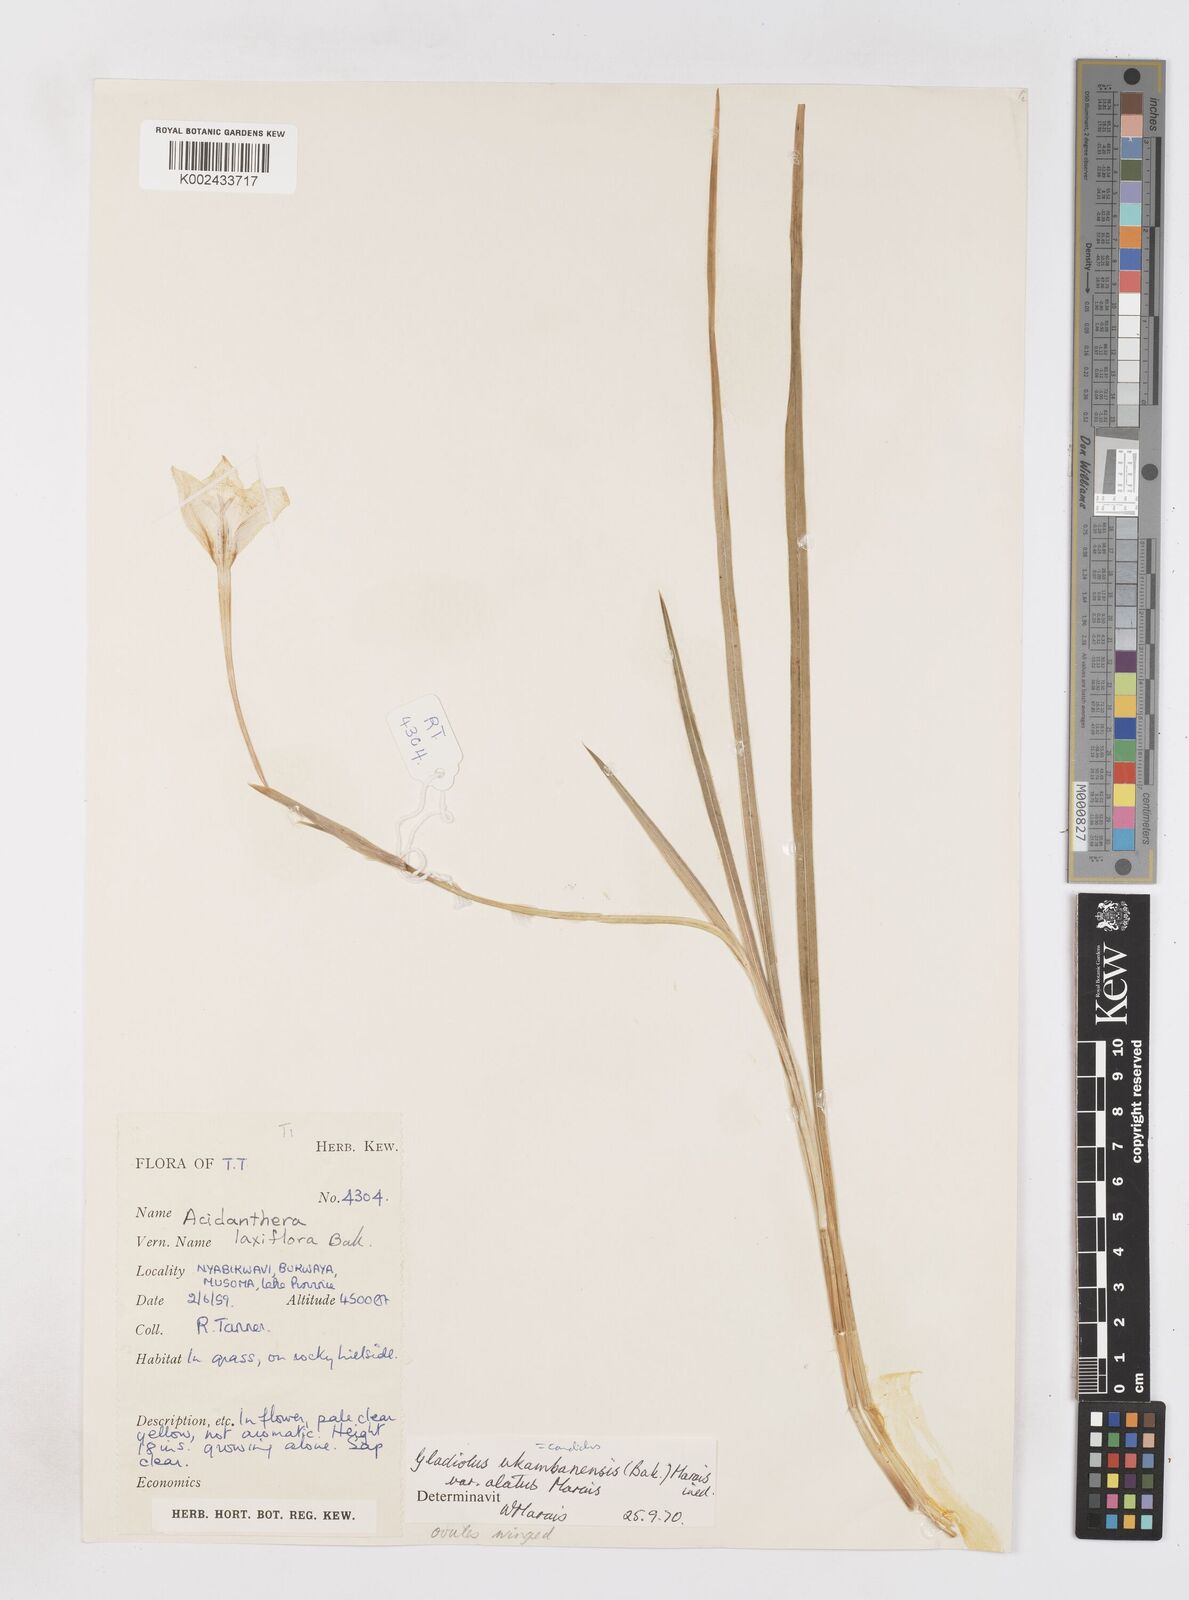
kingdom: Plantae
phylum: Tracheophyta
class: Liliopsida
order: Asparagales
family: Iridaceae
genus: Gladiolus
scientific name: Gladiolus candidus
